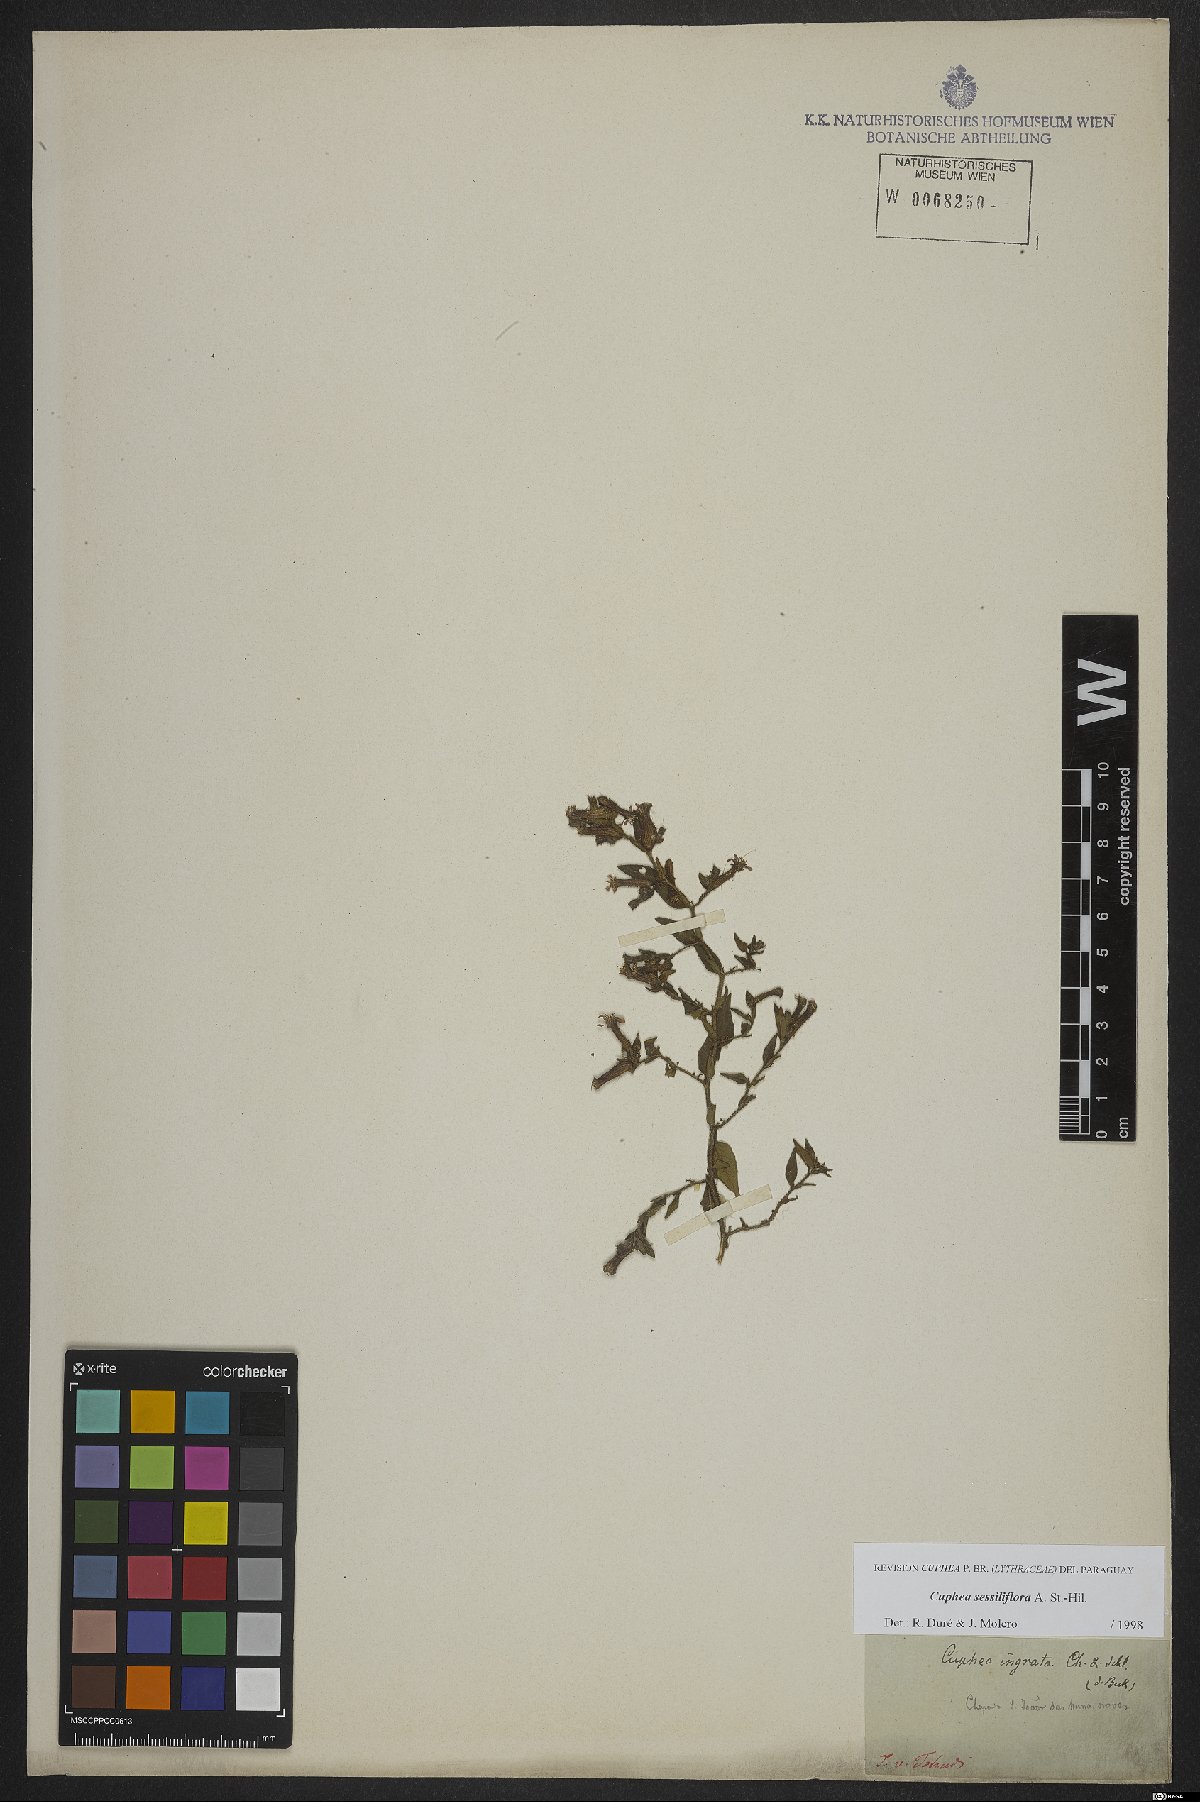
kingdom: Plantae
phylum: Tracheophyta
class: Magnoliopsida
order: Myrtales
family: Lythraceae
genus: Cuphea
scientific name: Cuphea sessiliflora
